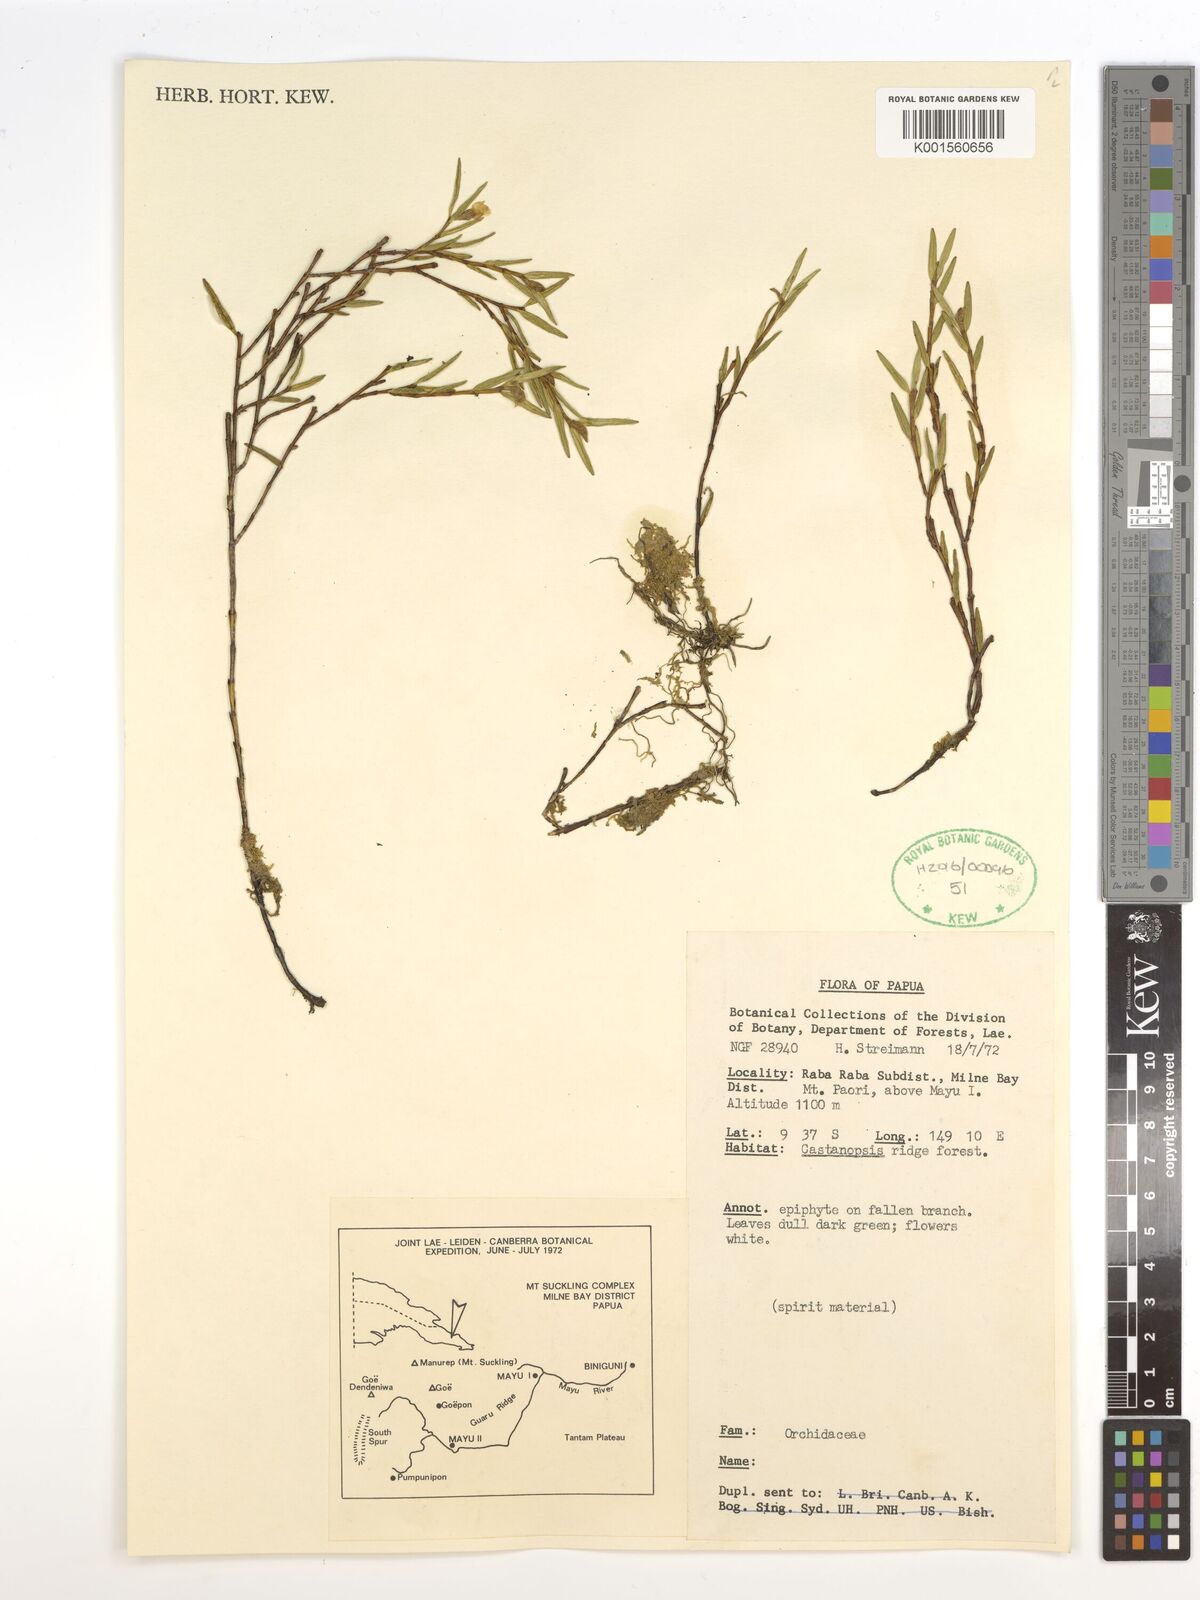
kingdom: Plantae
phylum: Tracheophyta
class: Liliopsida
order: Asparagales
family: Orchidaceae
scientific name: Orchidaceae
